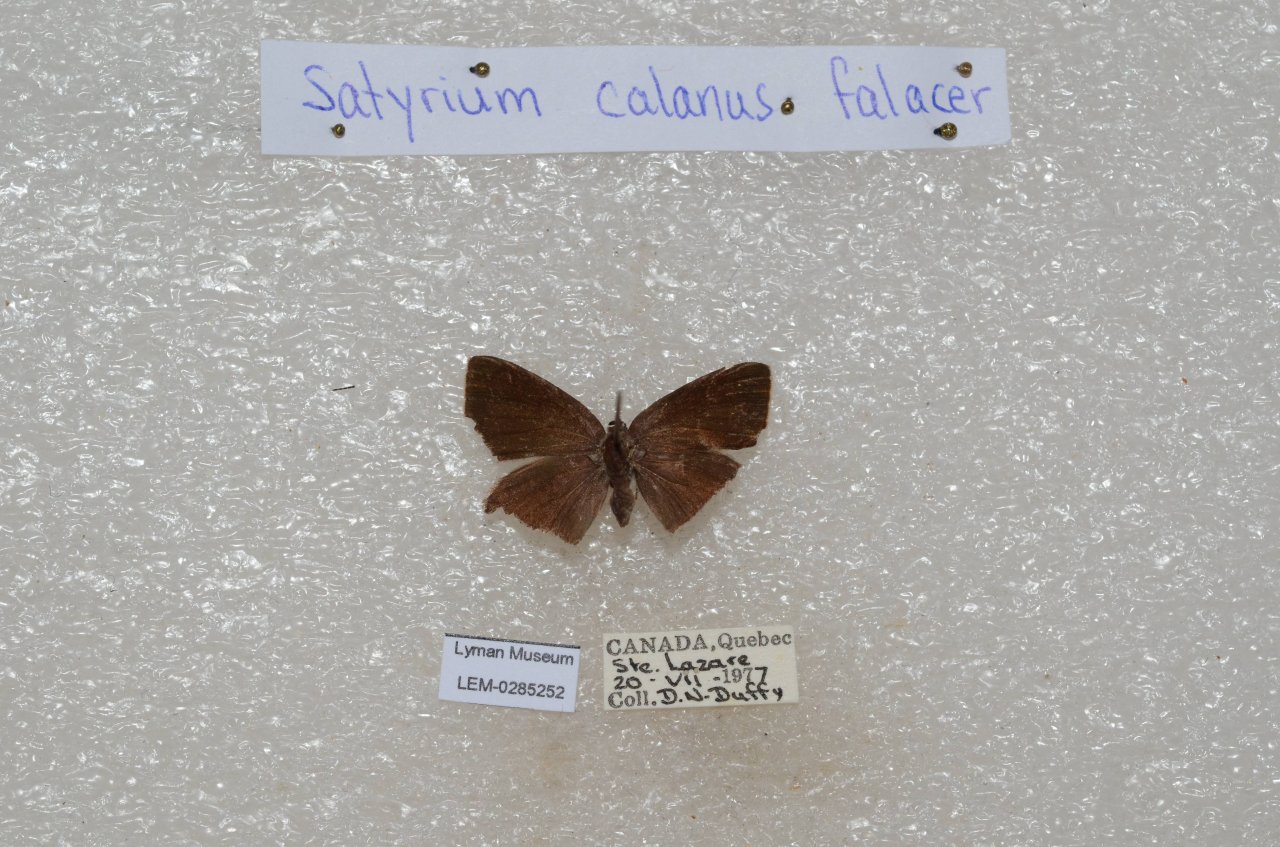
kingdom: Animalia
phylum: Arthropoda
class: Insecta
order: Lepidoptera
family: Lycaenidae
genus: Satyrium
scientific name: Satyrium calanus
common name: Banded Hairstreak
